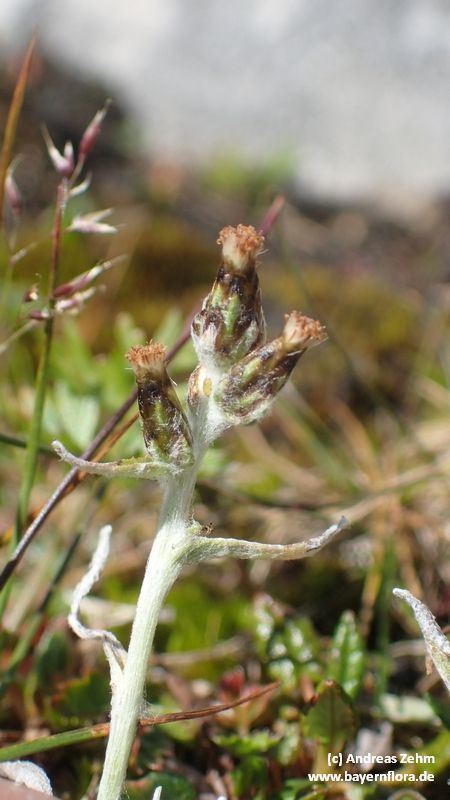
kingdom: Plantae
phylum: Tracheophyta
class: Magnoliopsida
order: Asterales
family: Asteraceae
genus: Omalotheca
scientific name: Omalotheca supina
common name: Alpine arctic-cudweed
